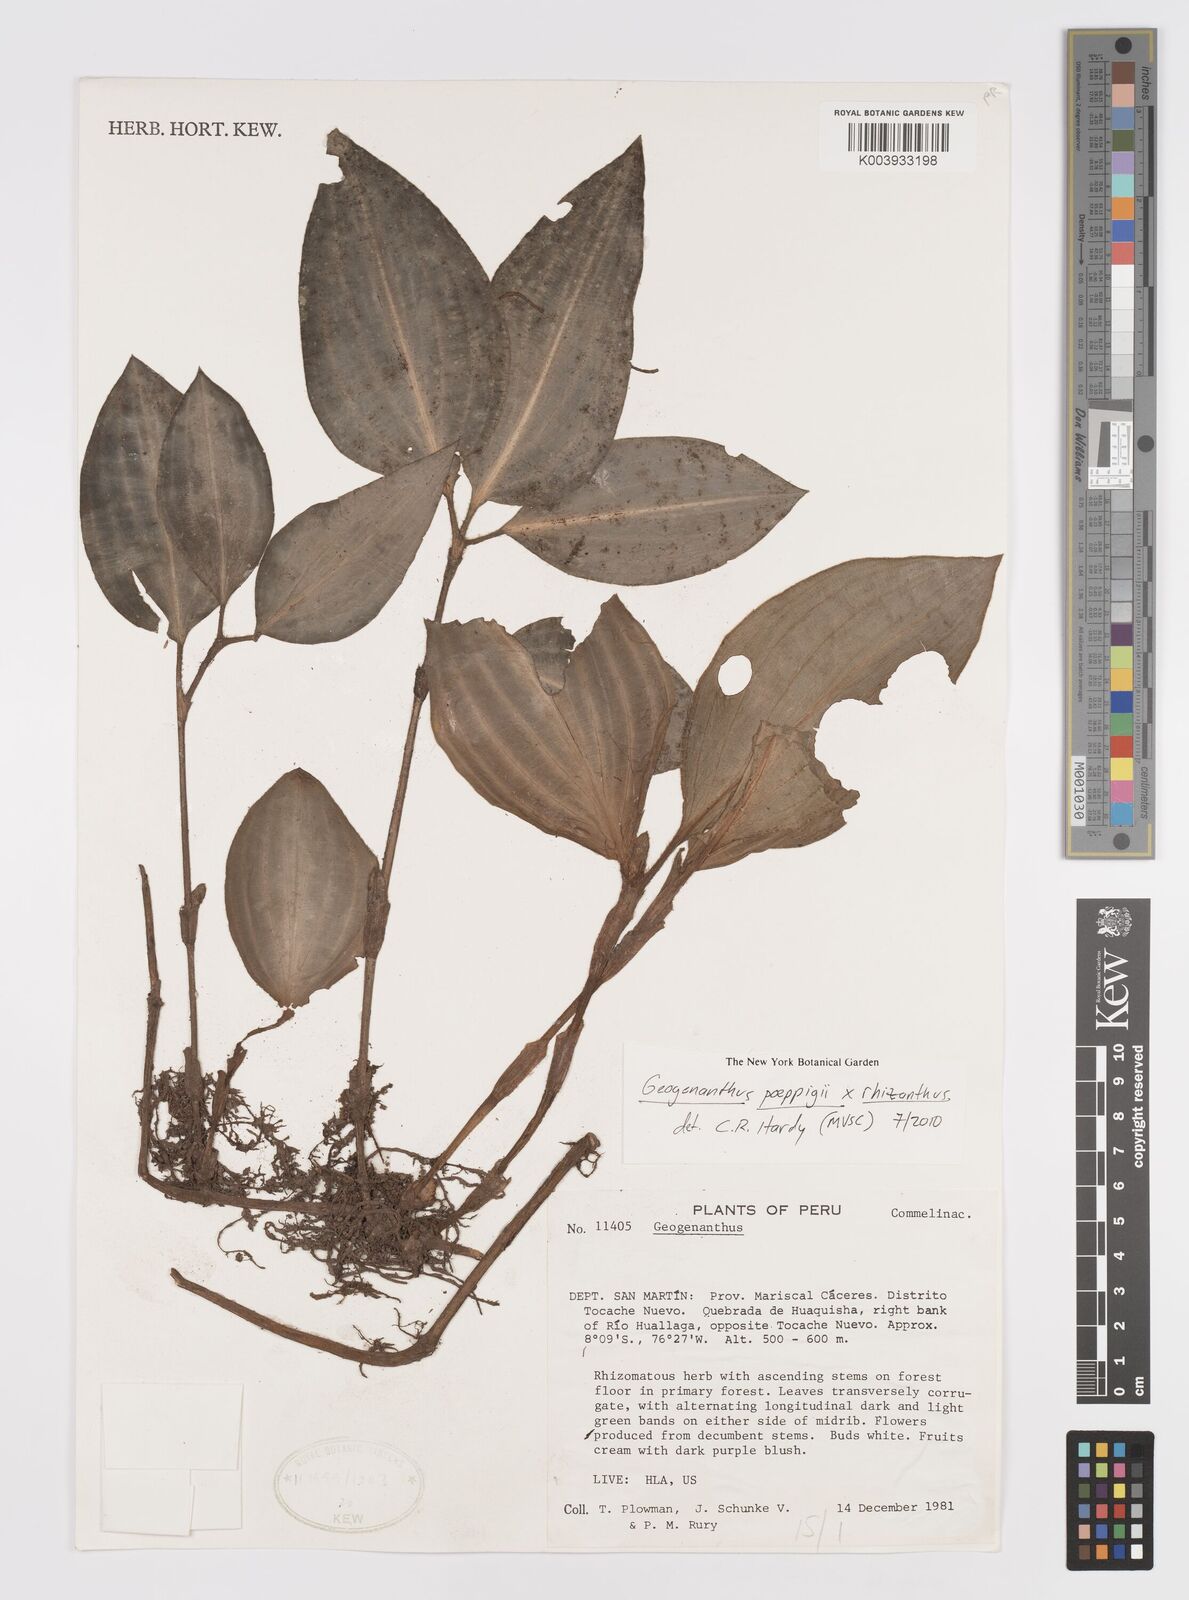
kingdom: Plantae
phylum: Tracheophyta
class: Liliopsida
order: Commelinales
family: Commelinaceae
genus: Geogenanthus
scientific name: Geogenanthus poeppigii
